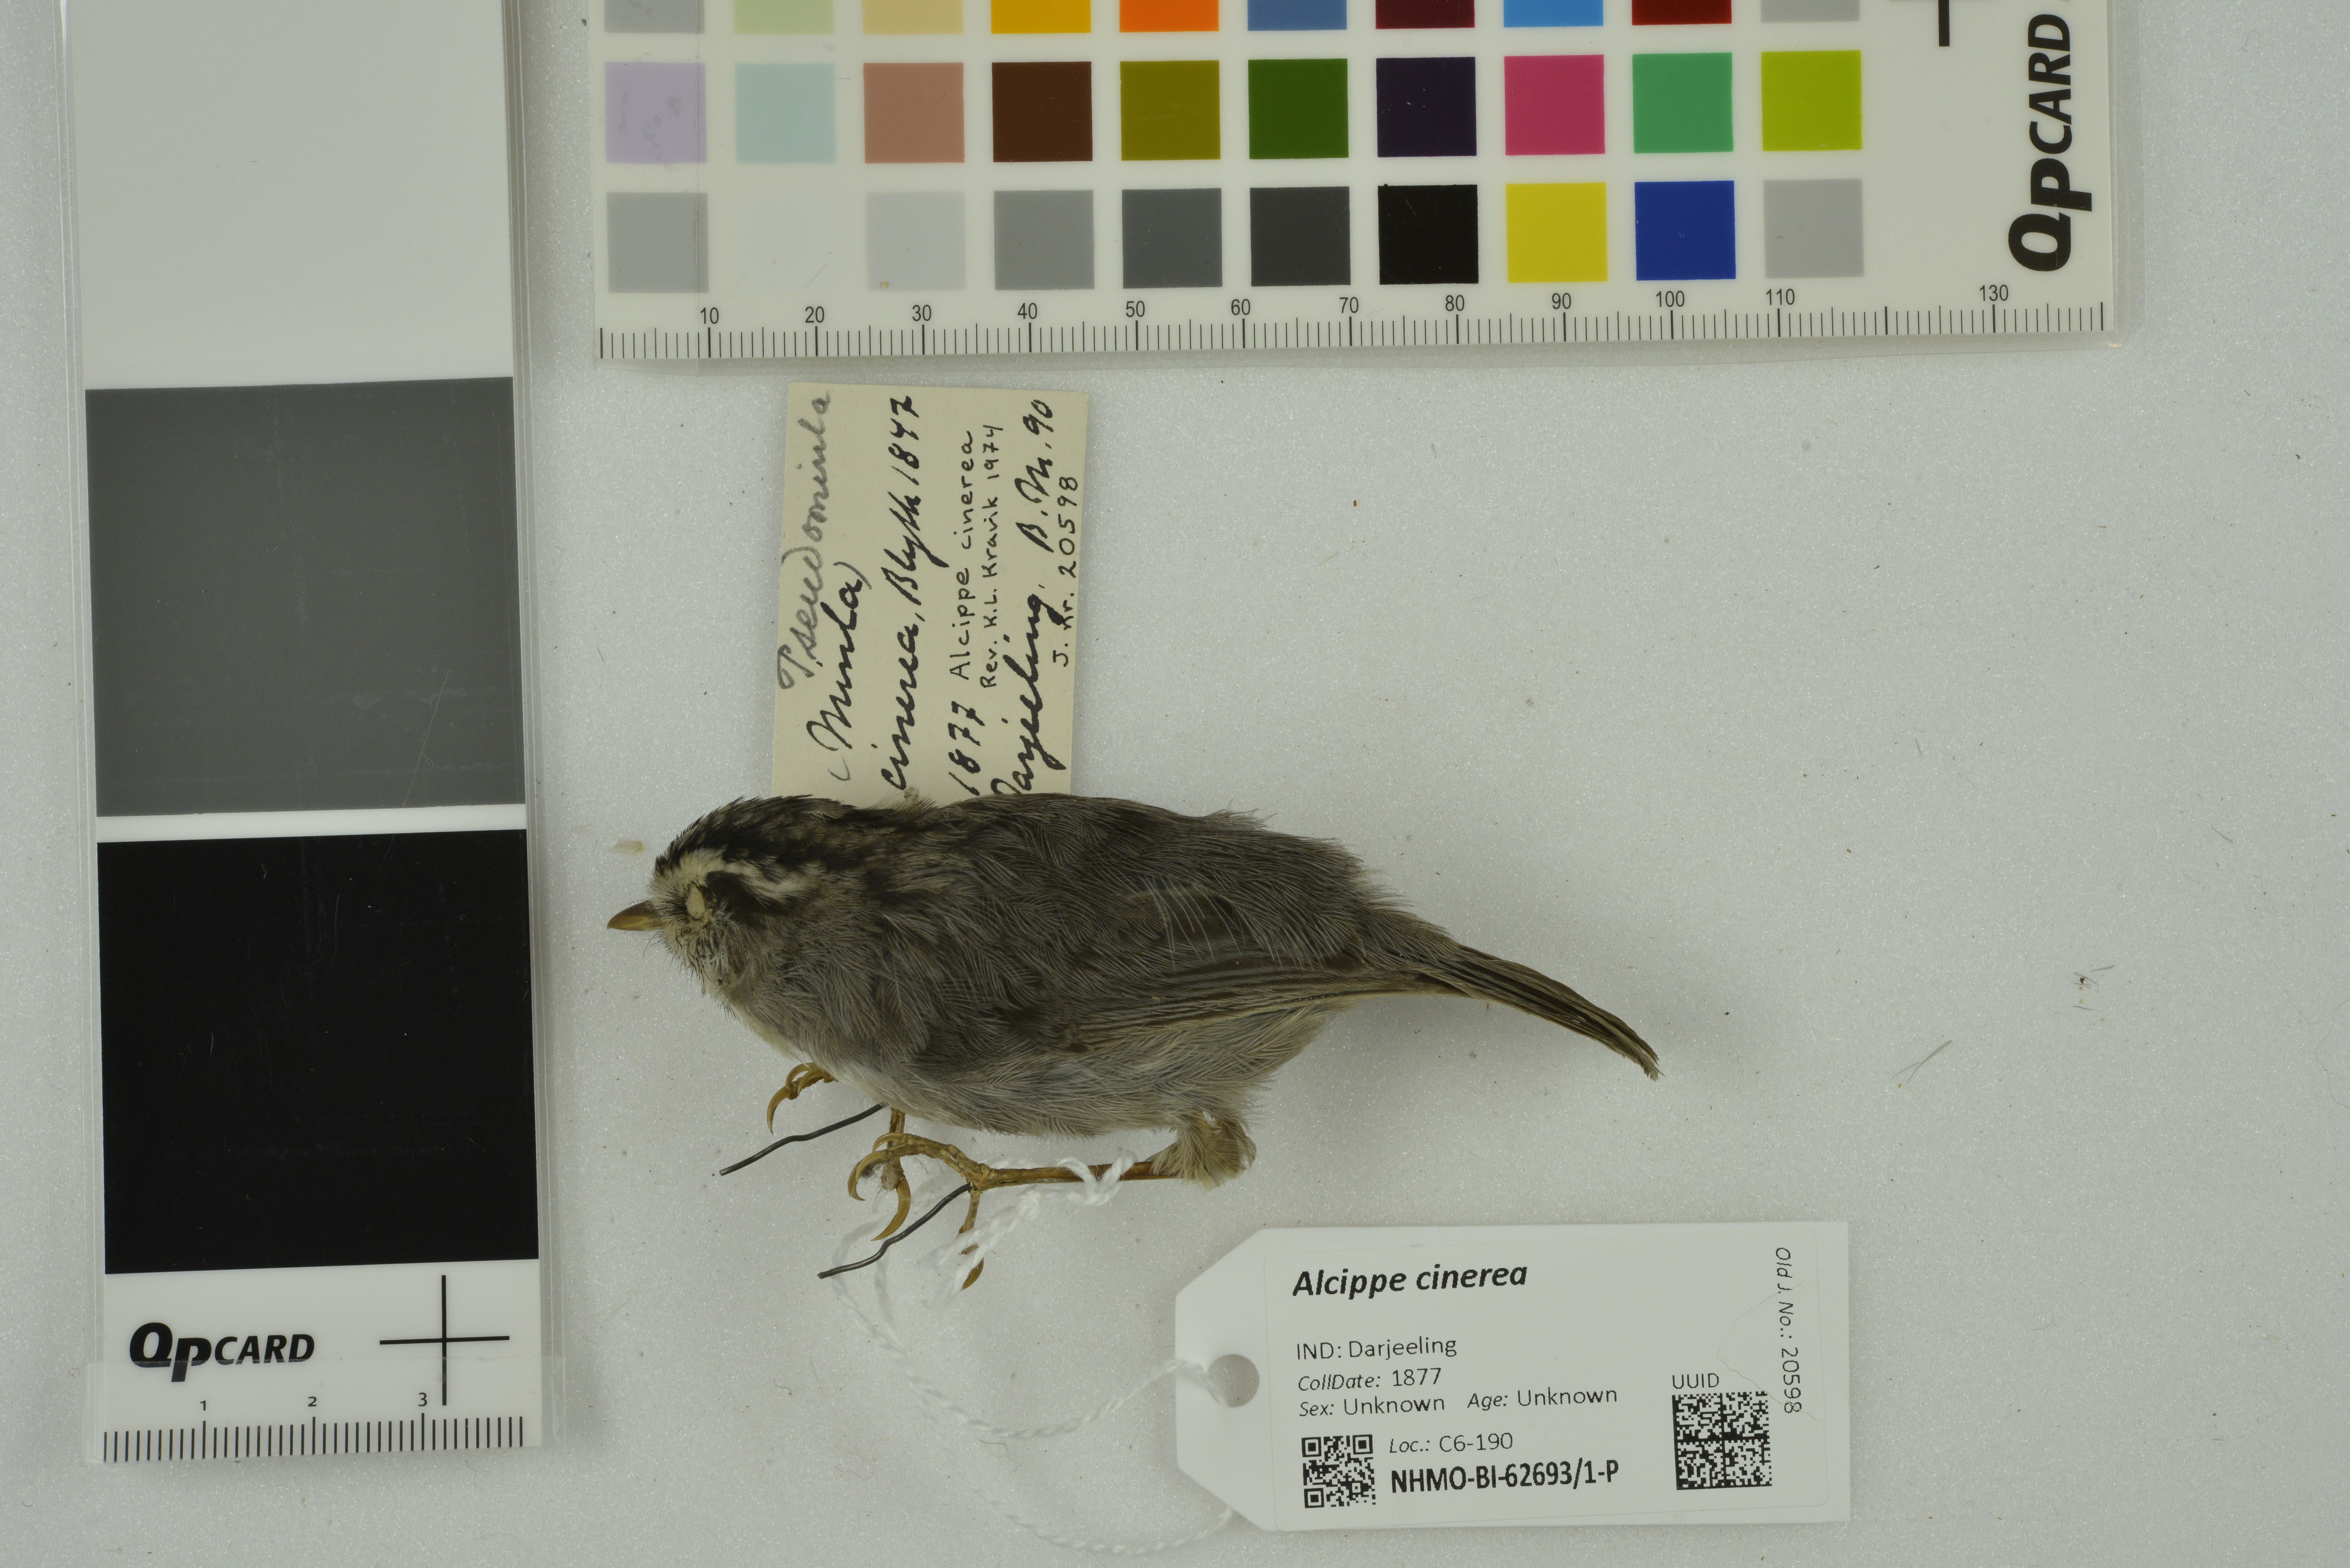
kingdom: Animalia
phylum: Chordata
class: Aves
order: Passeriformes
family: Pellorneidae
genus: Alcippe
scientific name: Alcippe cinerea
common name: Yellow-throated fulvetta
